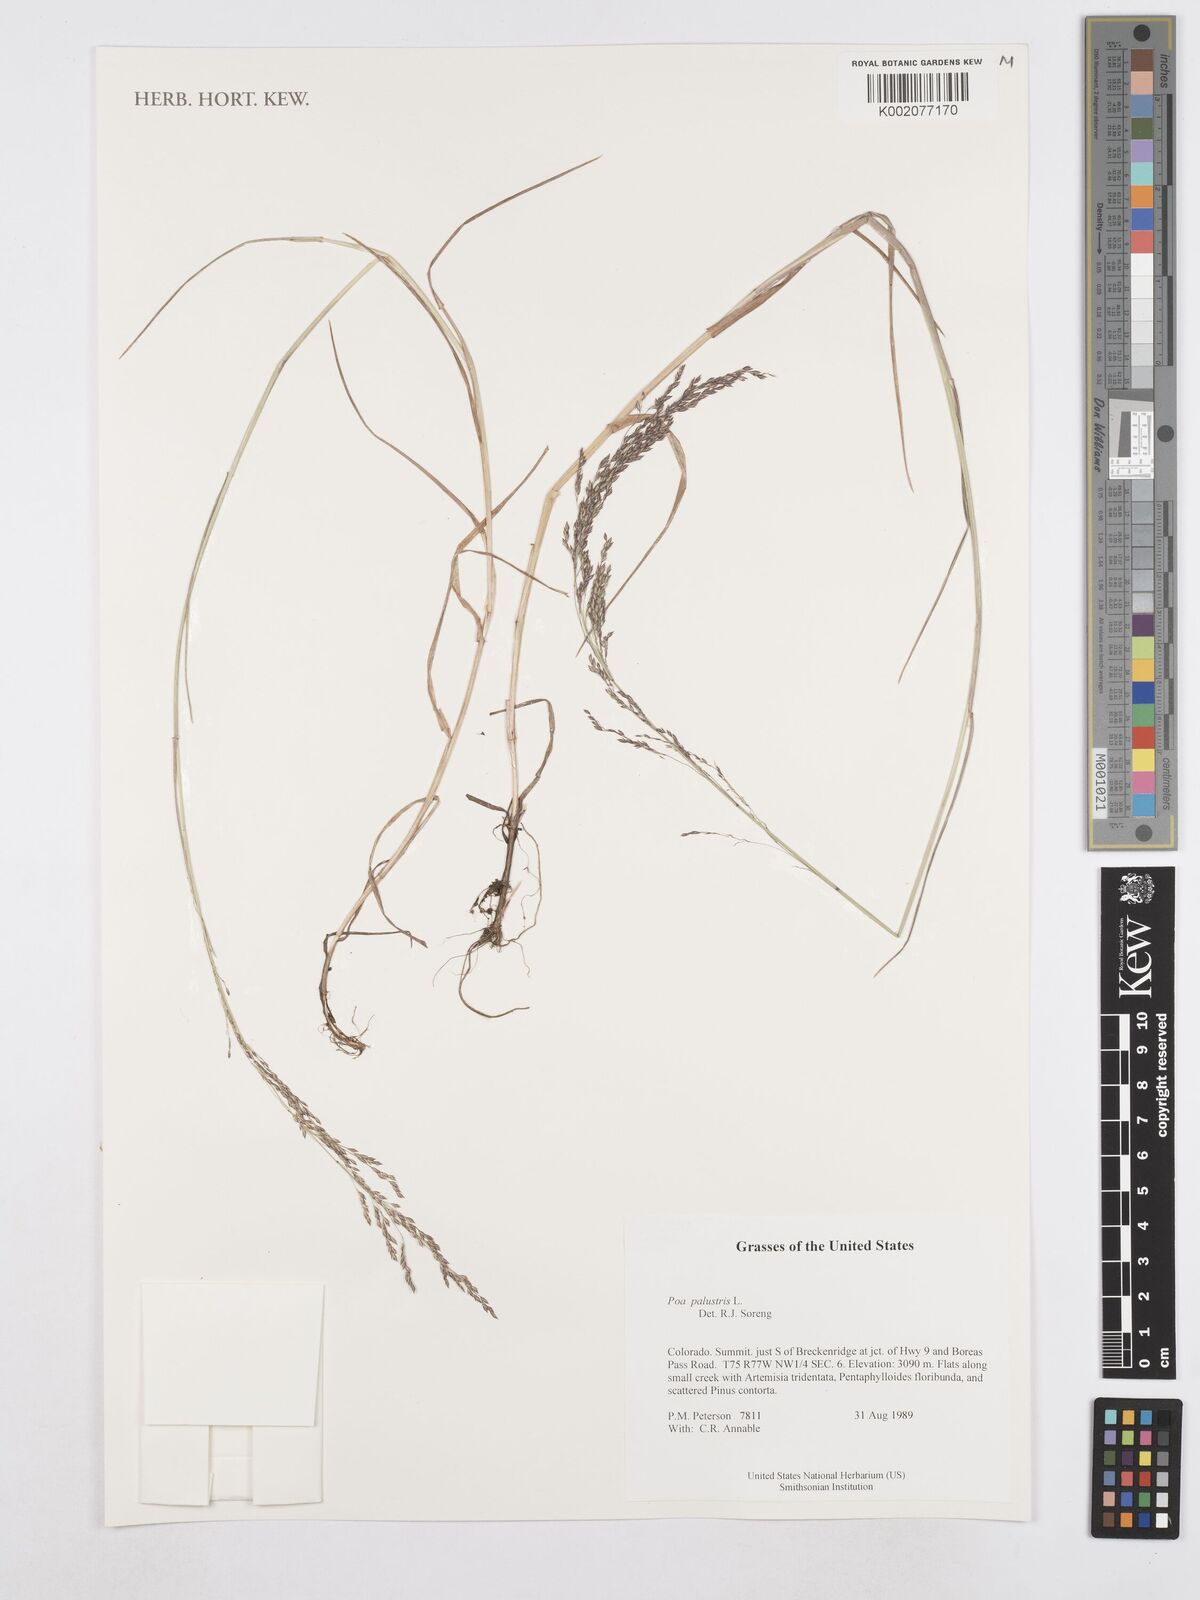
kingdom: Plantae
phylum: Tracheophyta
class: Liliopsida
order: Poales
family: Poaceae
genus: Poa
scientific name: Poa palustris
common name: Swamp meadow-grass
